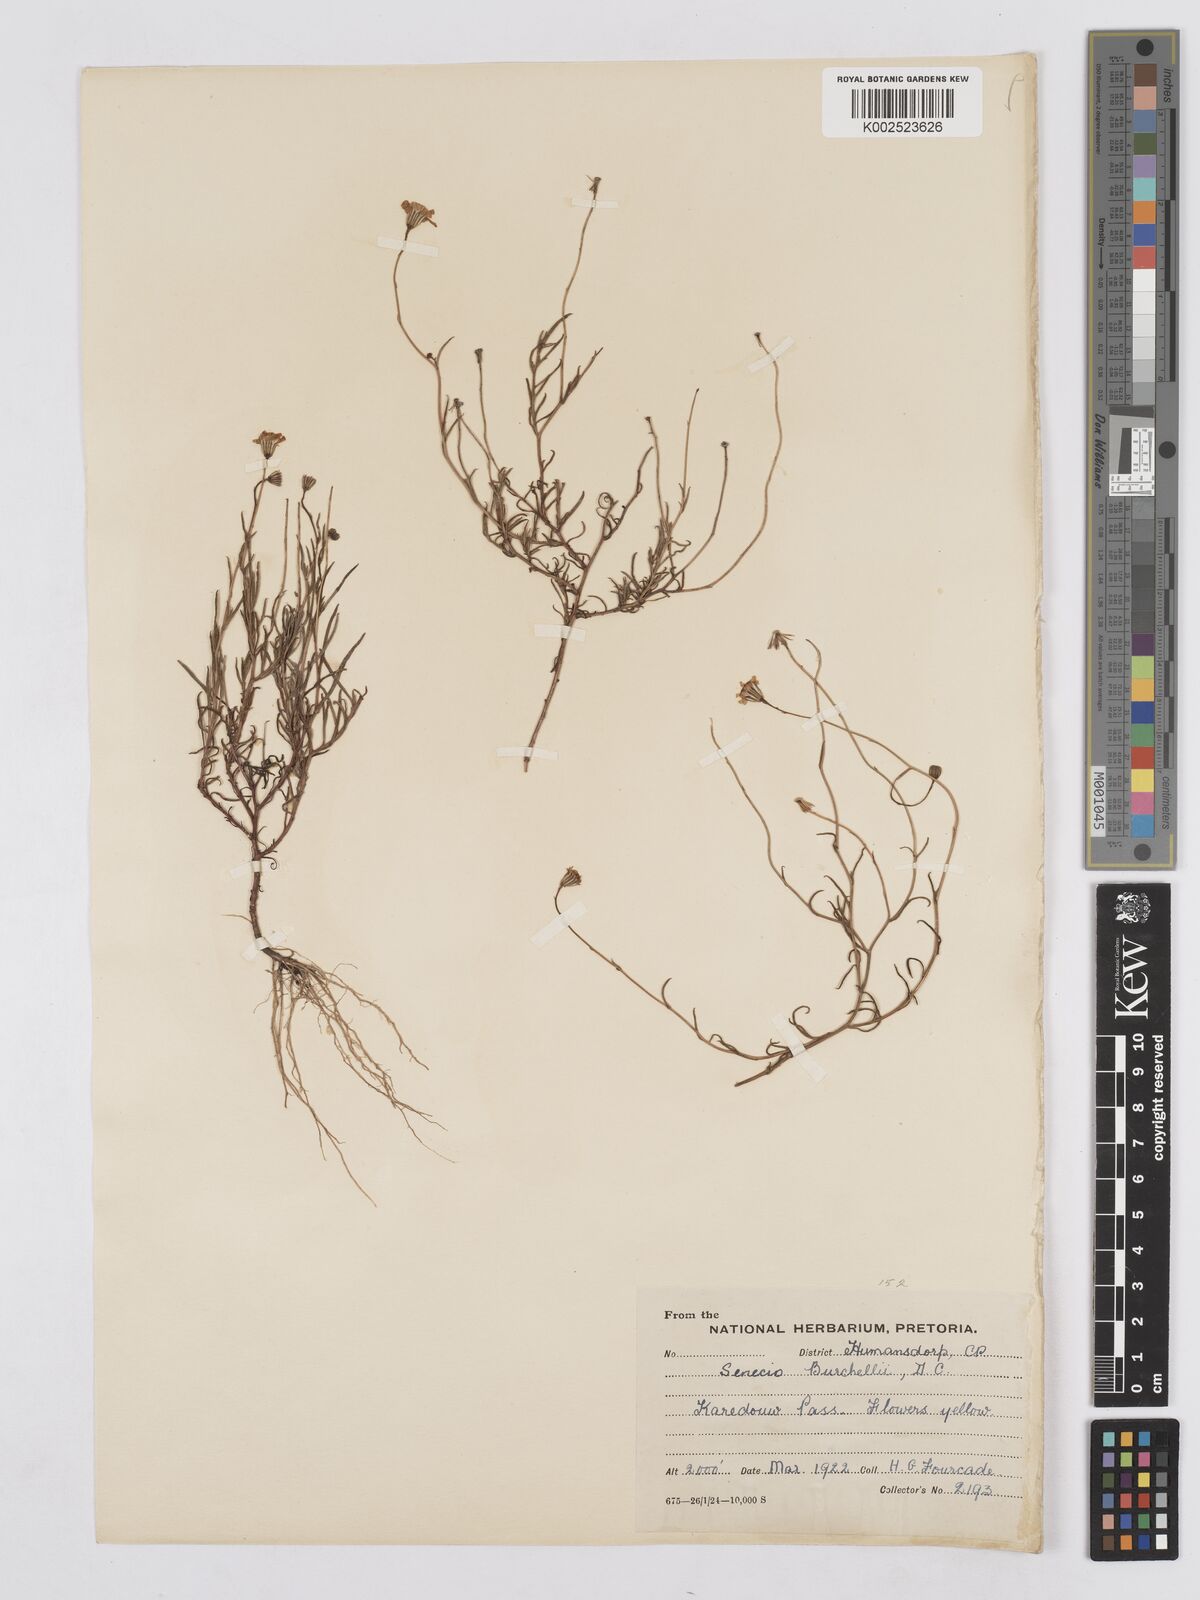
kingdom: Plantae
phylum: Tracheophyta
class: Magnoliopsida
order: Asterales
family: Asteraceae
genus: Senecio
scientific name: Senecio infirmus
